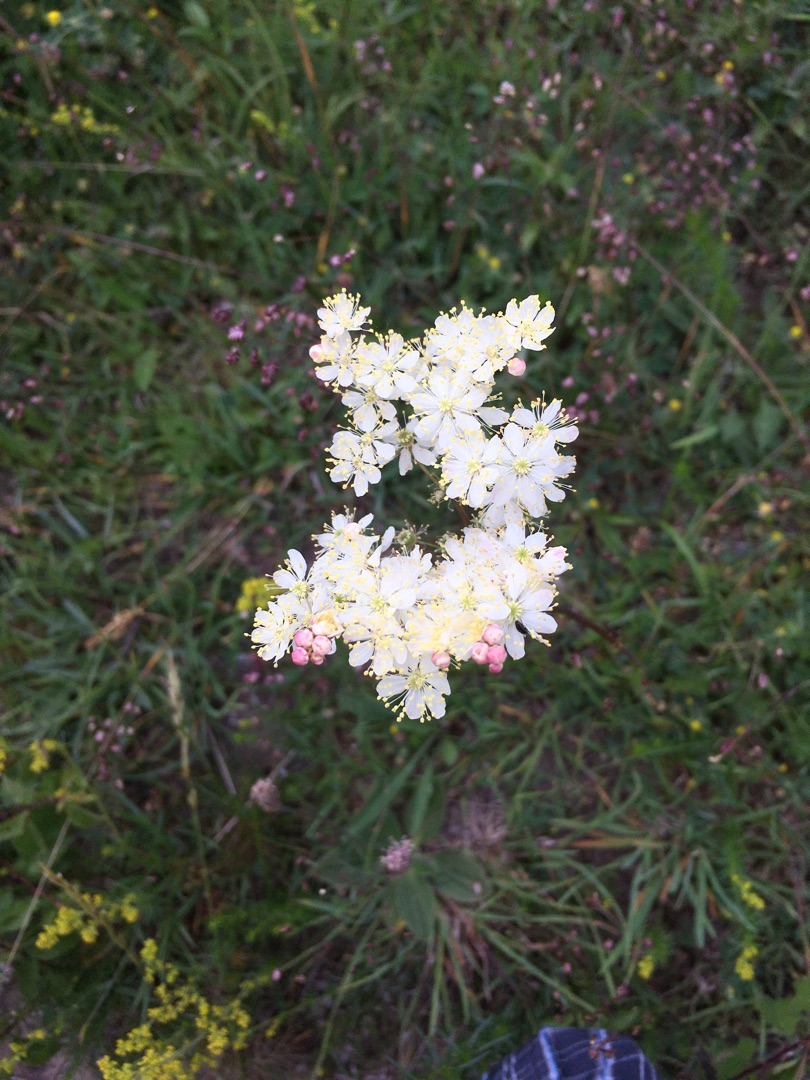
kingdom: Plantae
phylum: Tracheophyta
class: Magnoliopsida
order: Rosales
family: Rosaceae
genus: Filipendula
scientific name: Filipendula vulgaris
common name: Knoldet mjødurt
